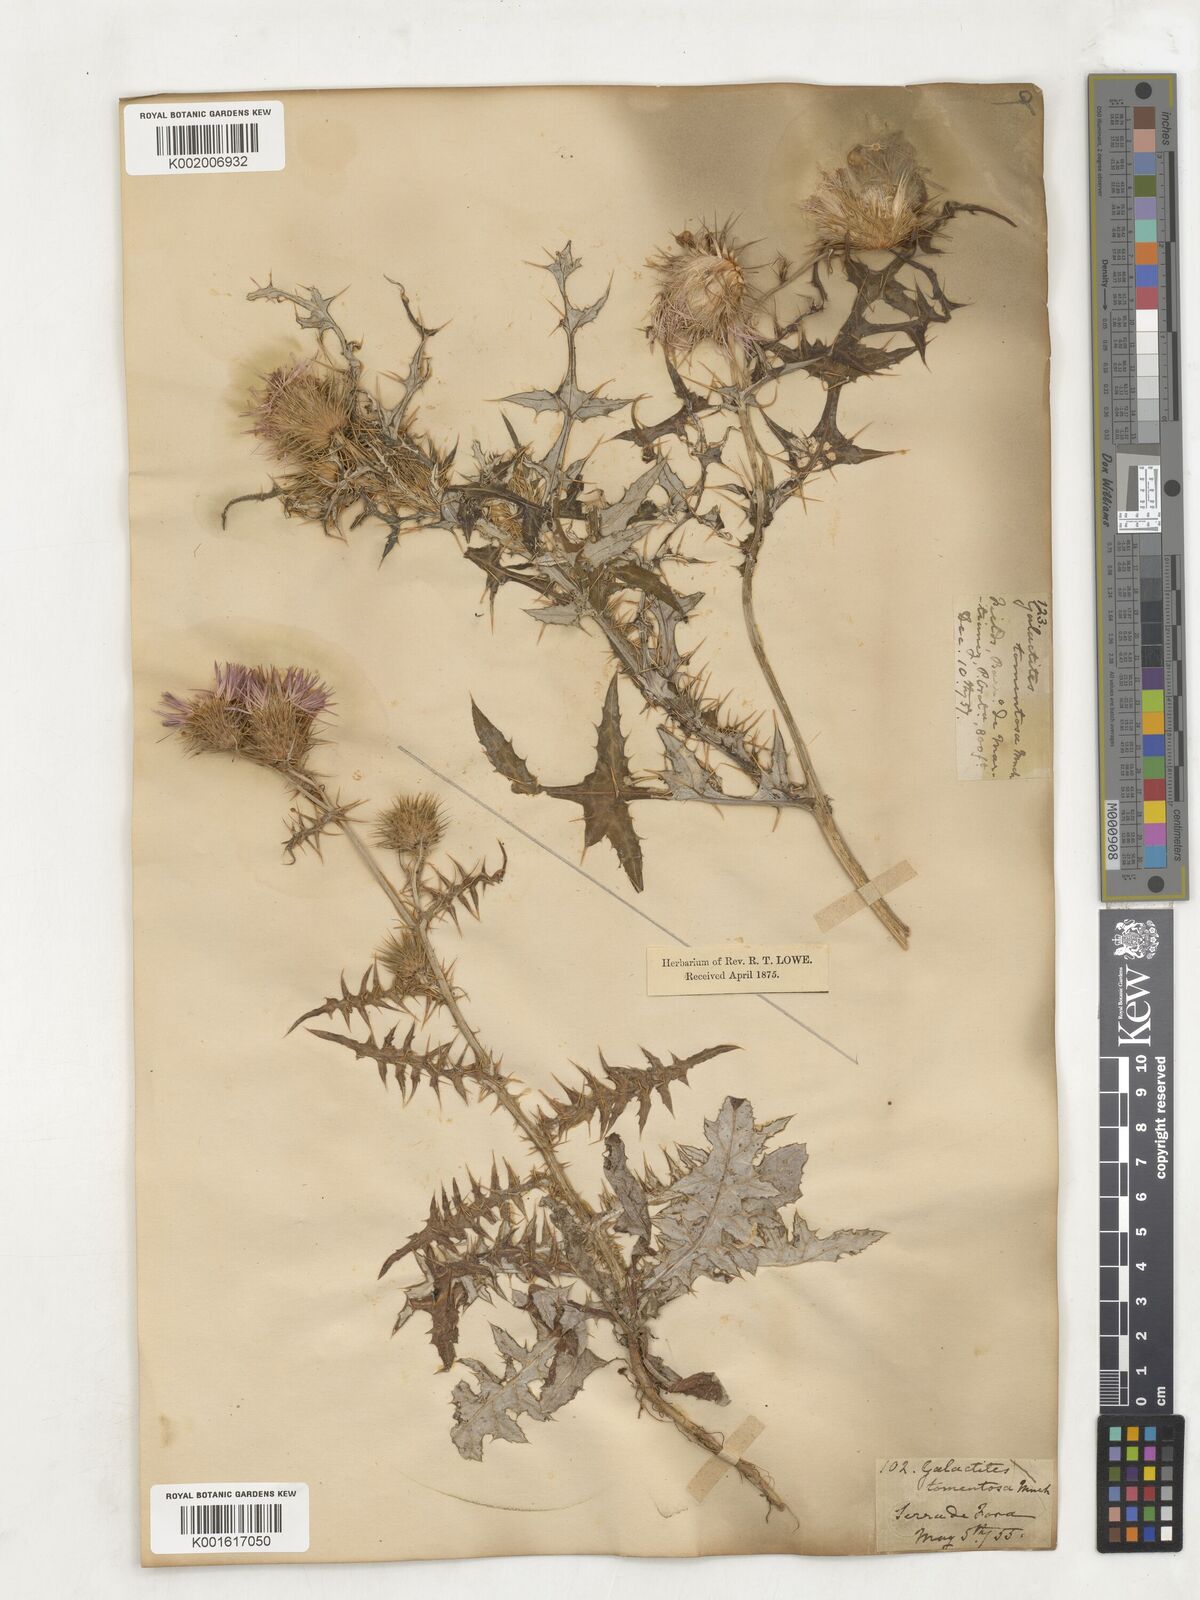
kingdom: Plantae
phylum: Tracheophyta
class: Magnoliopsida
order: Asterales
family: Asteraceae
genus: Galactites
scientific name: Galactites
